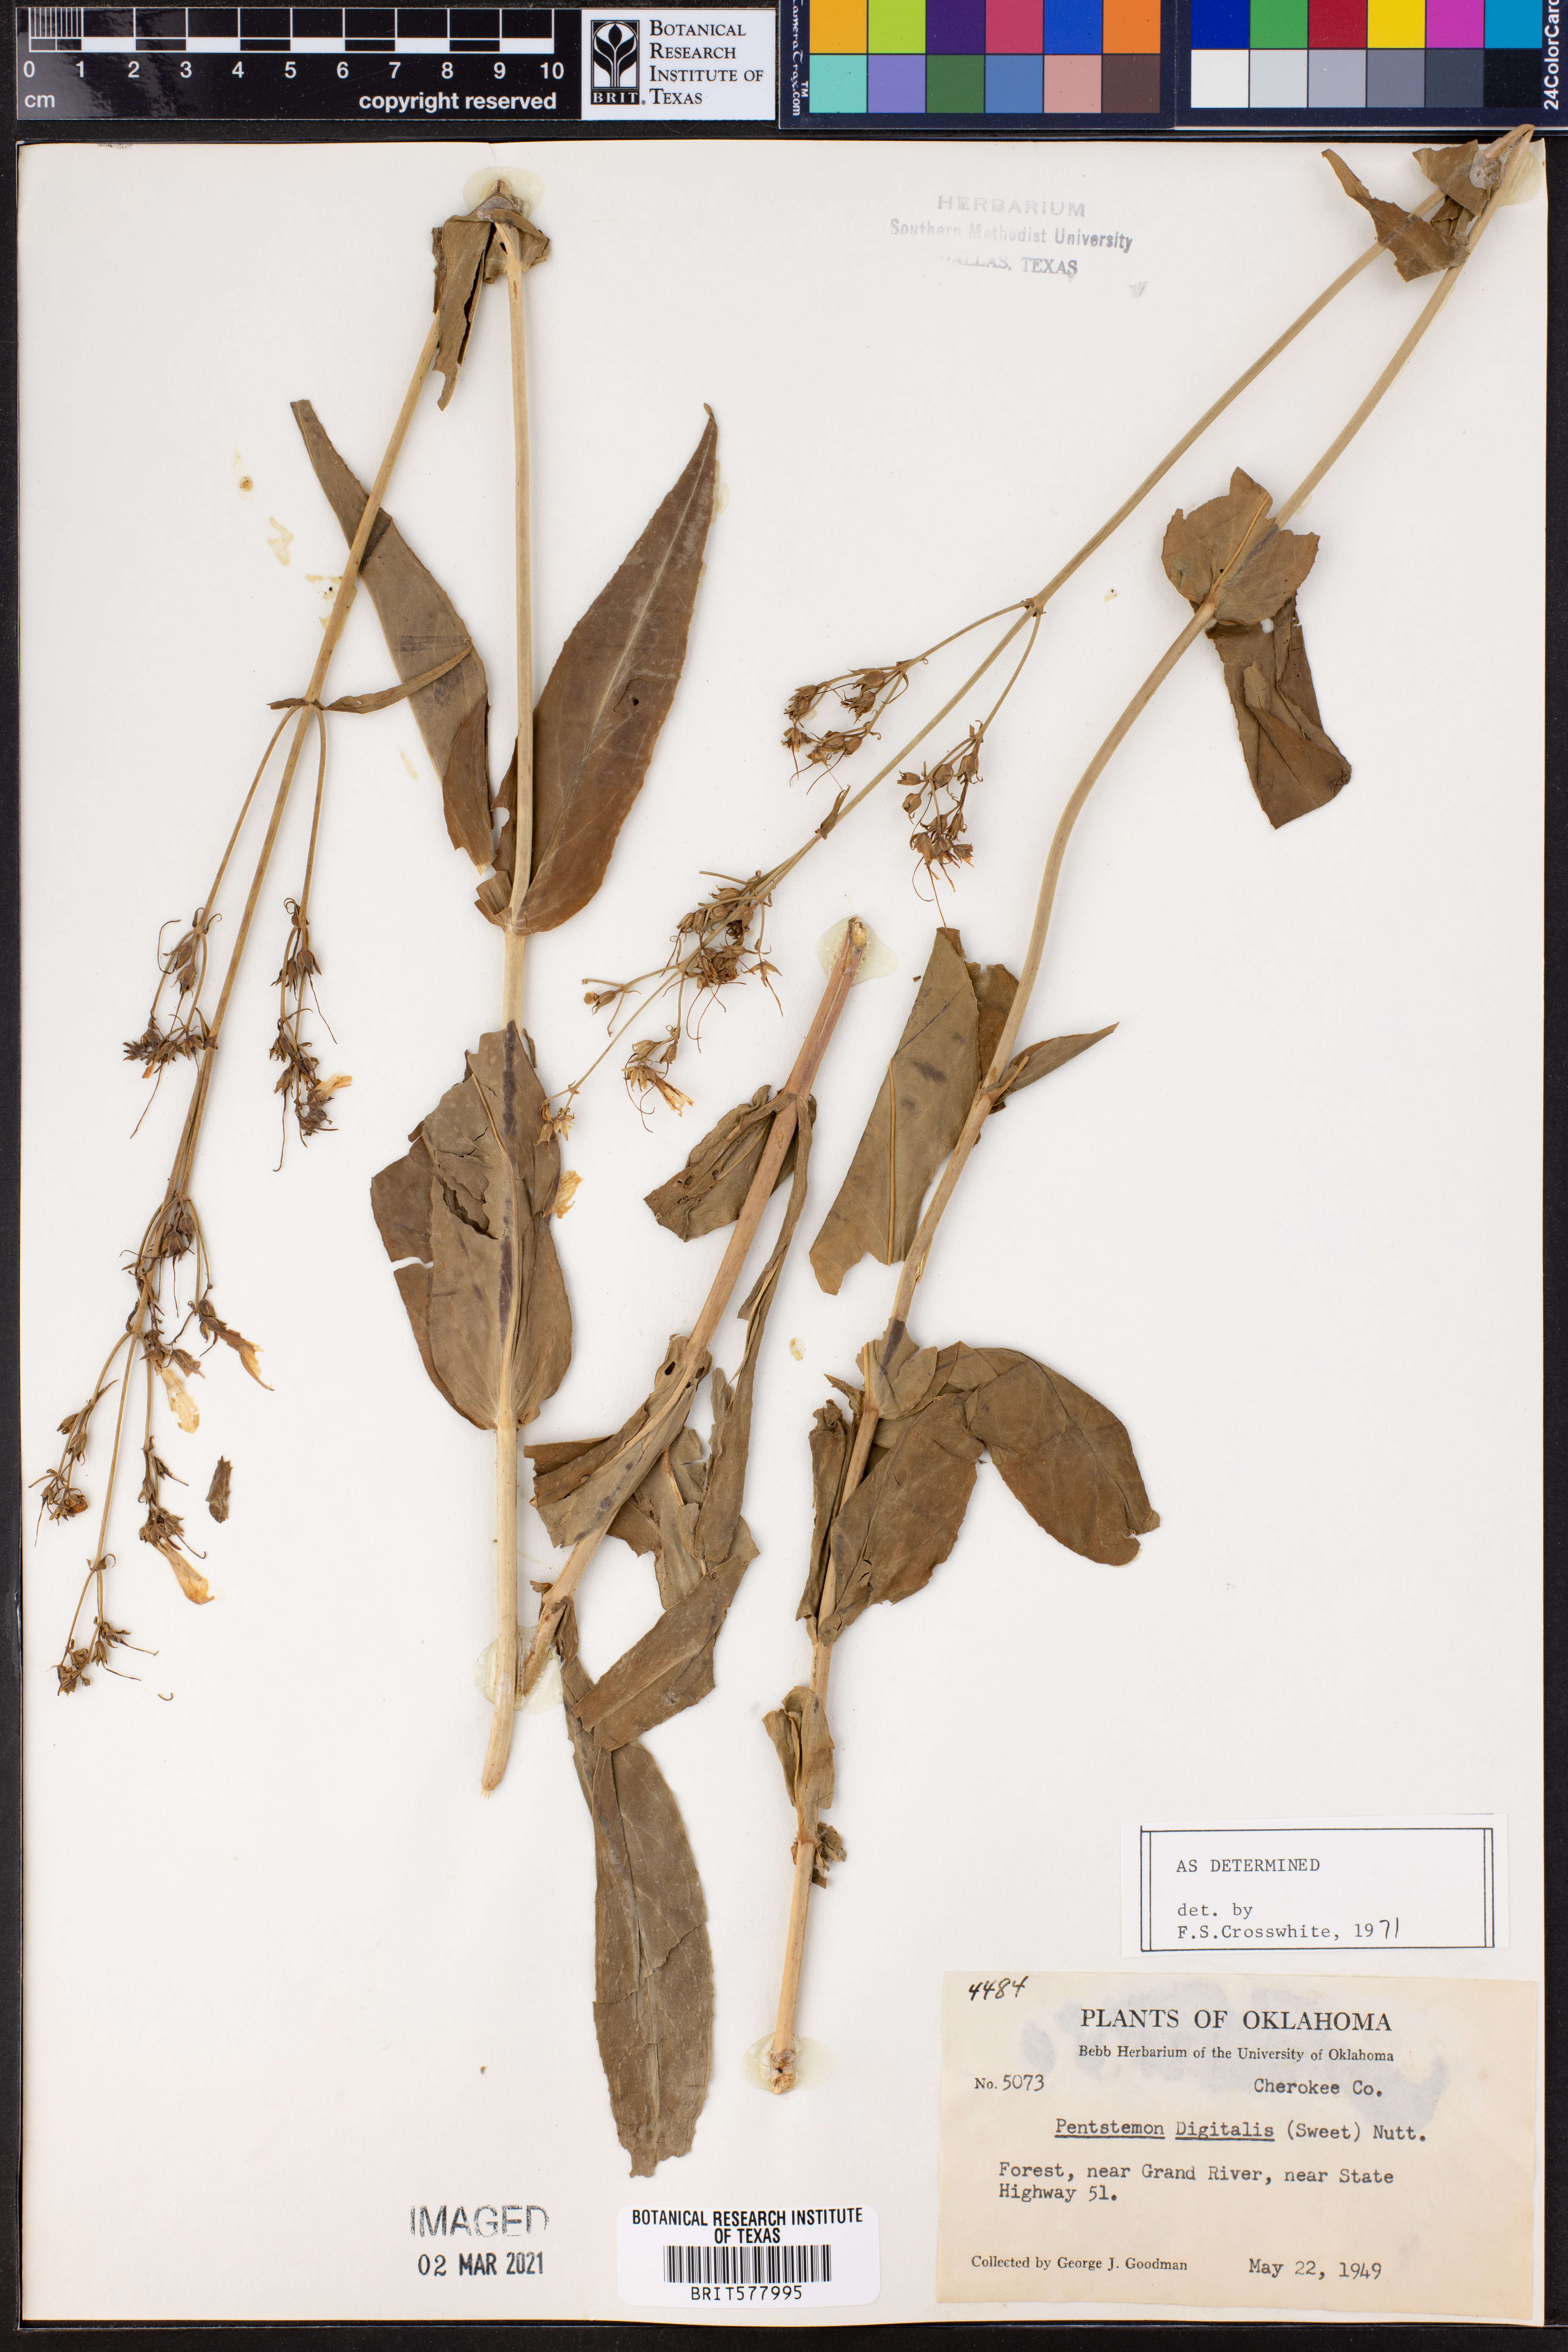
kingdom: Plantae
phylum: Tracheophyta
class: Magnoliopsida
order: Lamiales
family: Plantaginaceae
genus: Penstemon
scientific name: Penstemon digitalis
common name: Foxglove beardtongue
